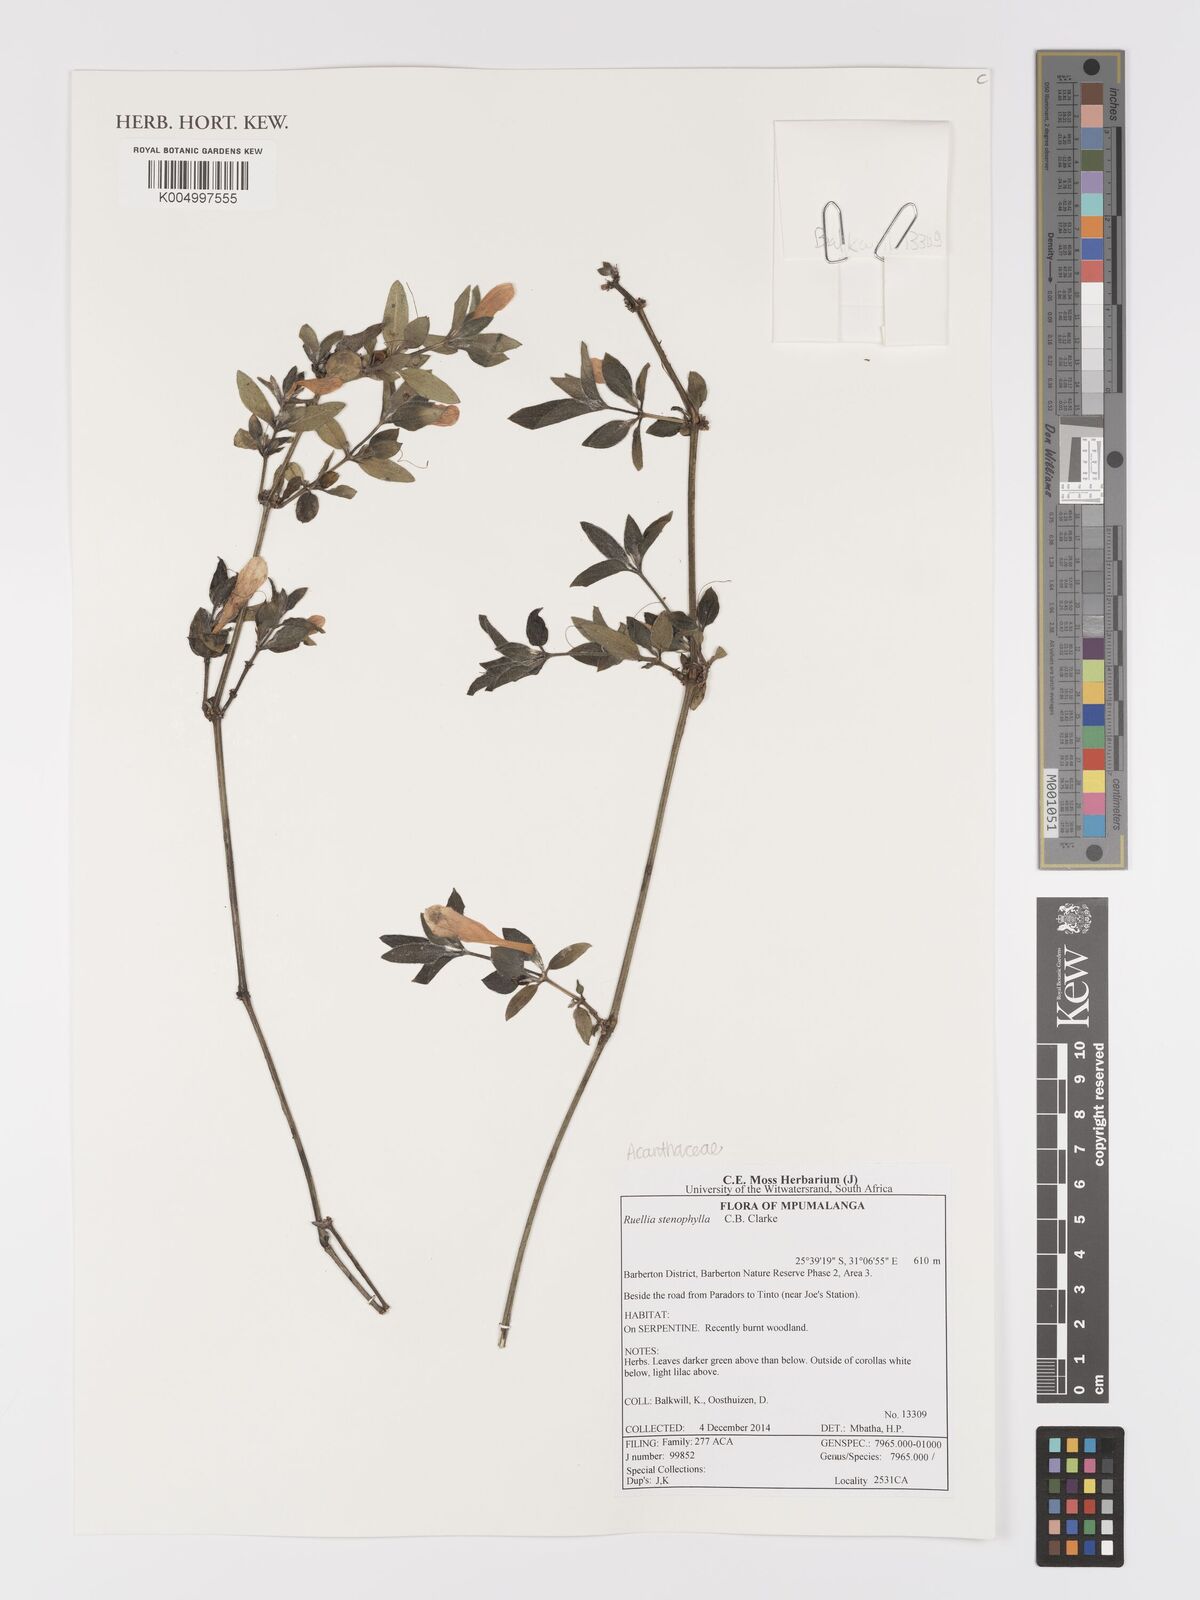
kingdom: Plantae
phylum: Tracheophyta
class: Magnoliopsida
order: Lamiales
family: Acanthaceae
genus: Ruellia
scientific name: Ruellia stenophylla
